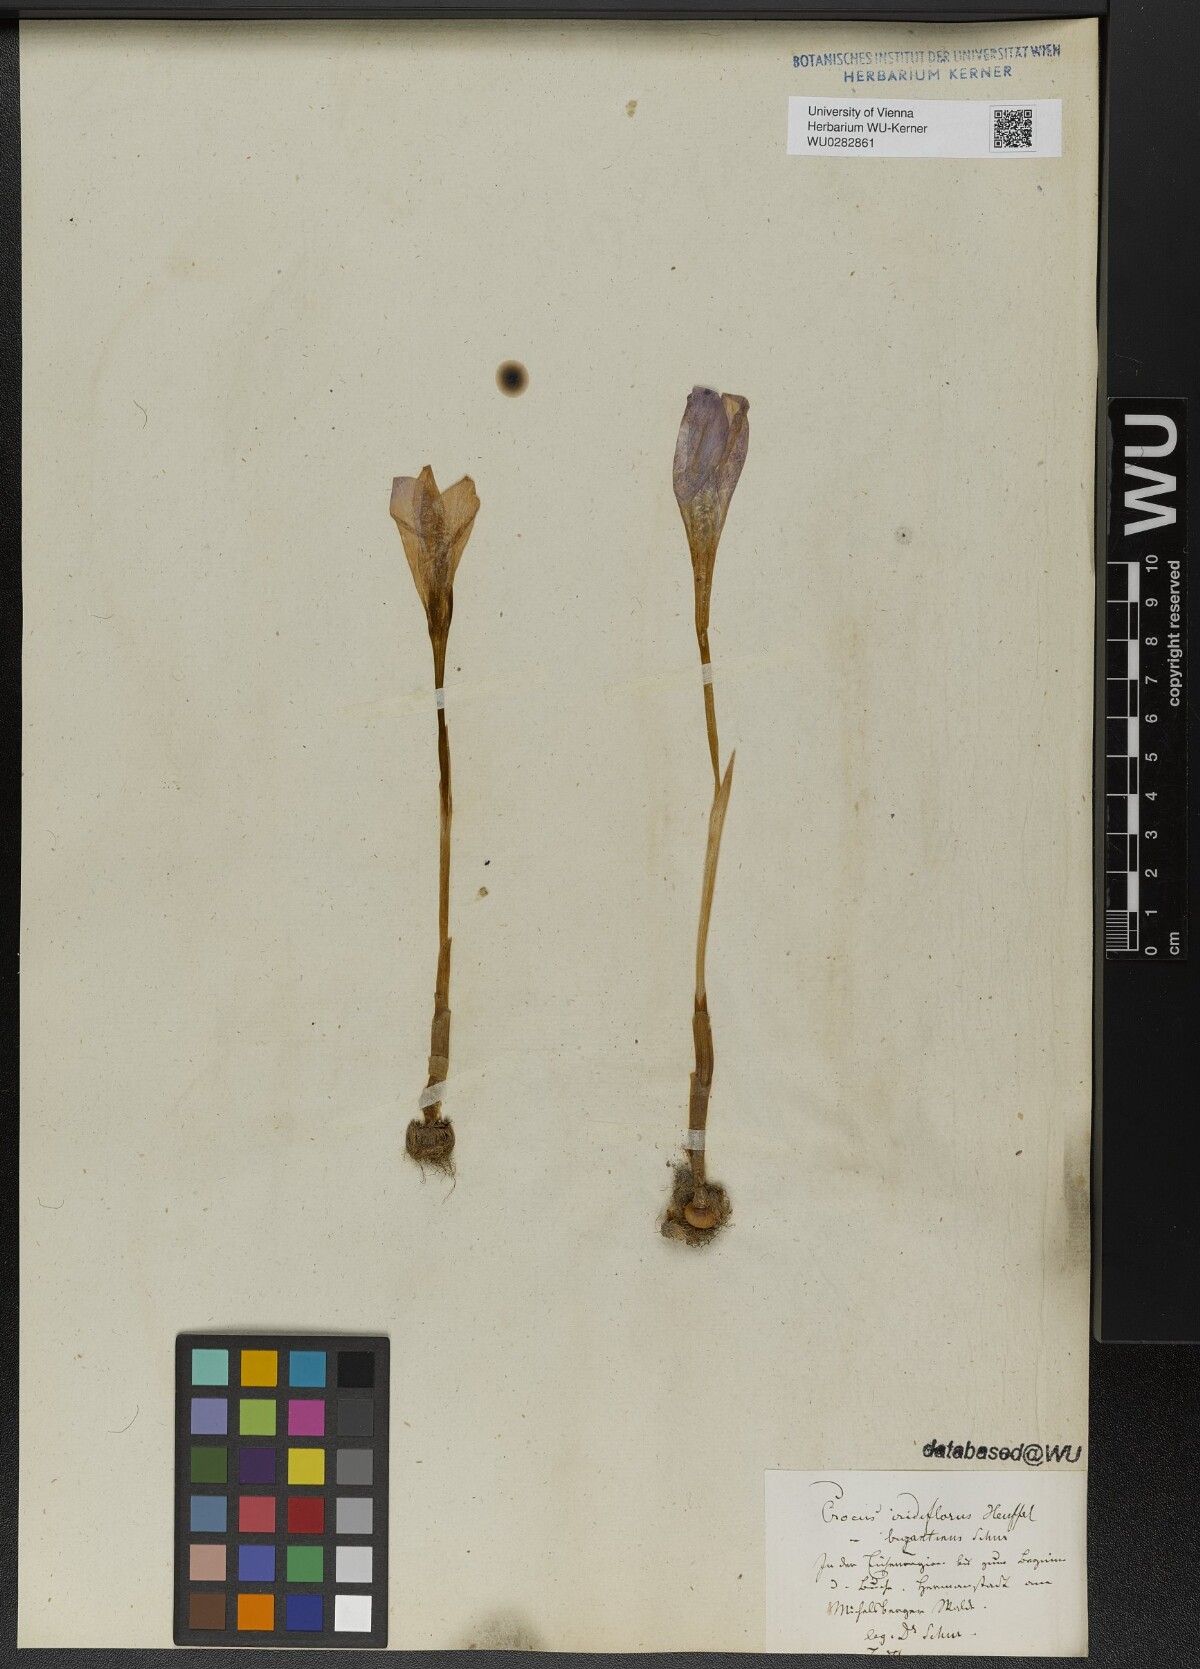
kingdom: Plantae
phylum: Tracheophyta
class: Liliopsida
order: Asparagales
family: Iridaceae
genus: Crocus
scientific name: Crocus banaticus
